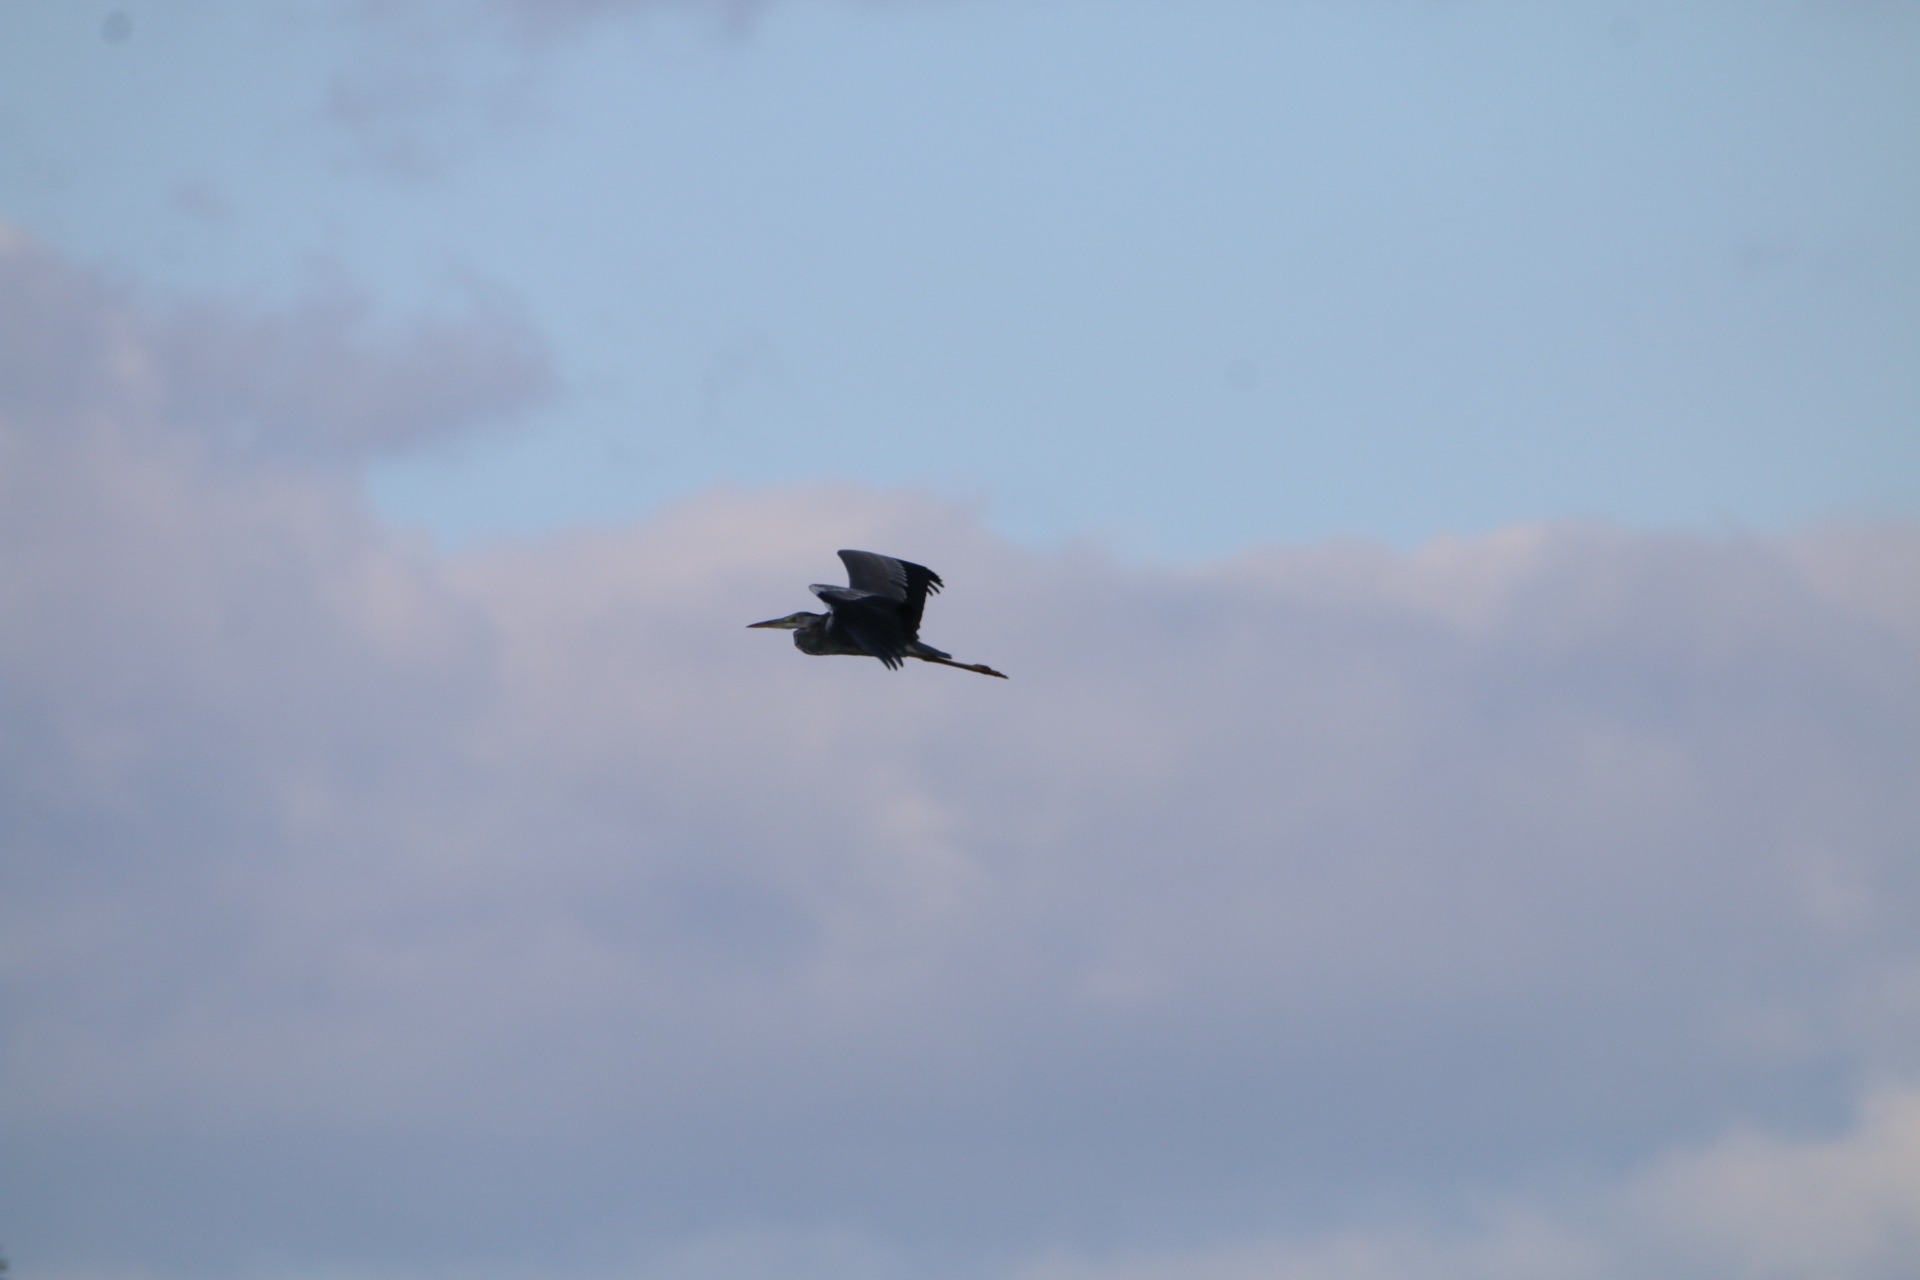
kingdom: Animalia
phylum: Chordata
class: Aves
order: Pelecaniformes
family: Ardeidae
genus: Ardea
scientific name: Ardea cinerea
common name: Fiskehejre
